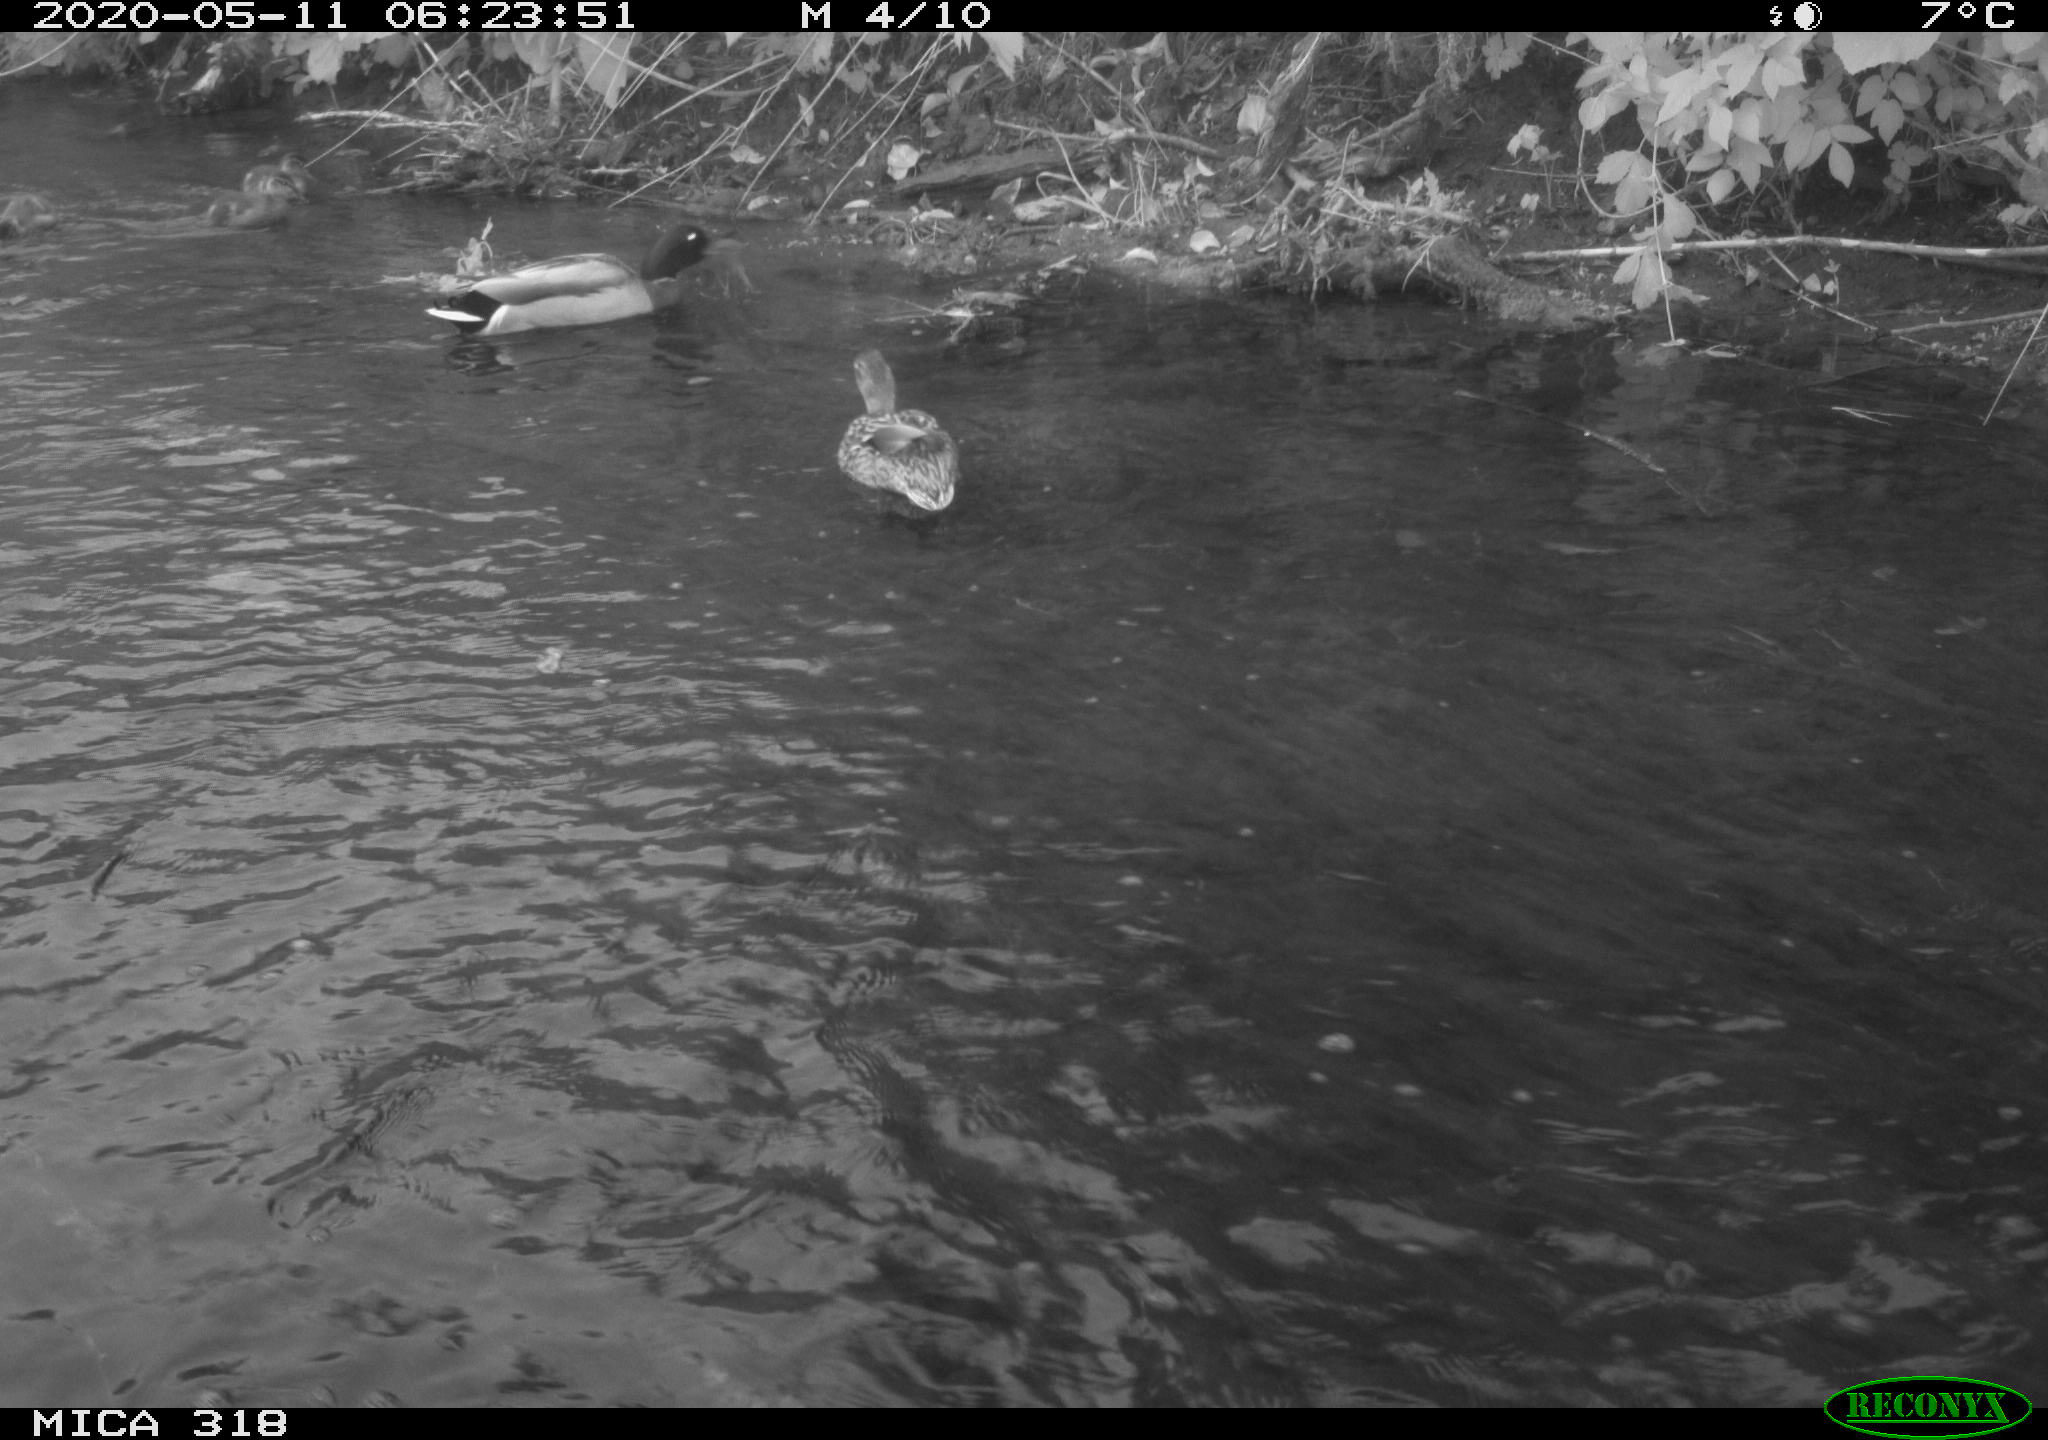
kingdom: Animalia
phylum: Chordata
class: Aves
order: Anseriformes
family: Anatidae
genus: Anas
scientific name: Anas platyrhynchos
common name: Mallard
